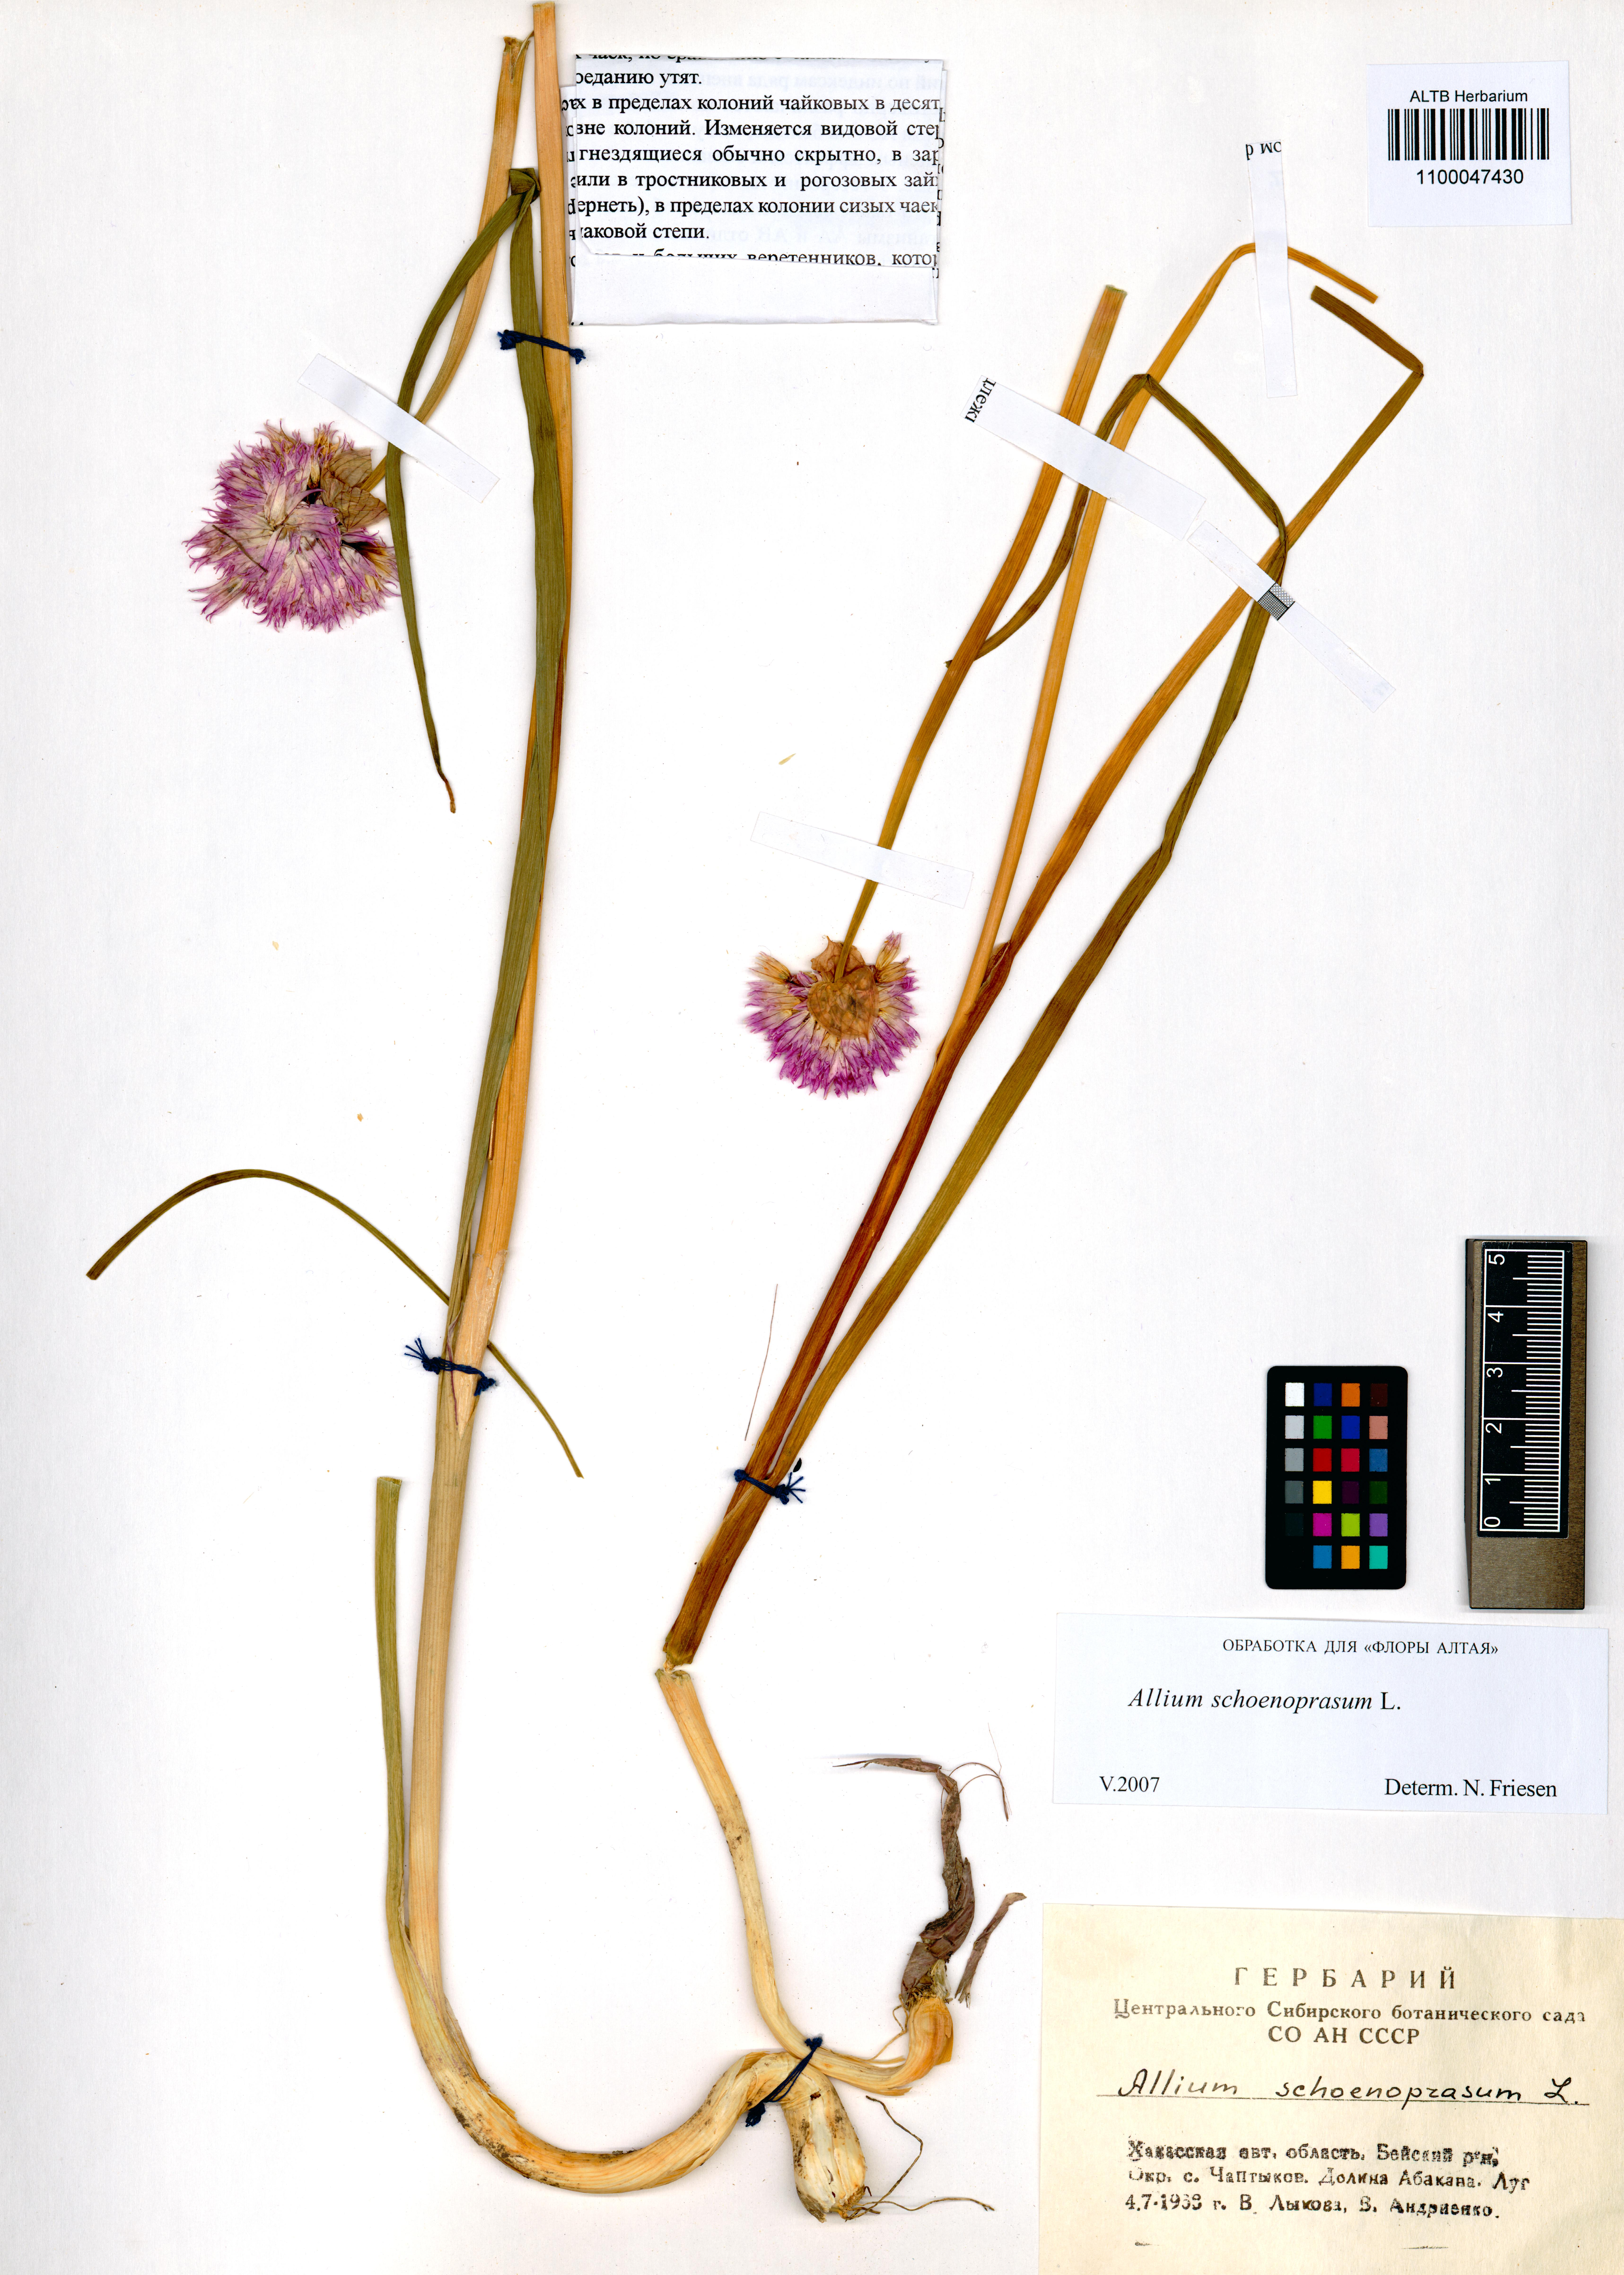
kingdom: Plantae
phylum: Tracheophyta
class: Liliopsida
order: Asparagales
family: Amaryllidaceae
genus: Allium
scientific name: Allium schoenoprasum
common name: Chives
